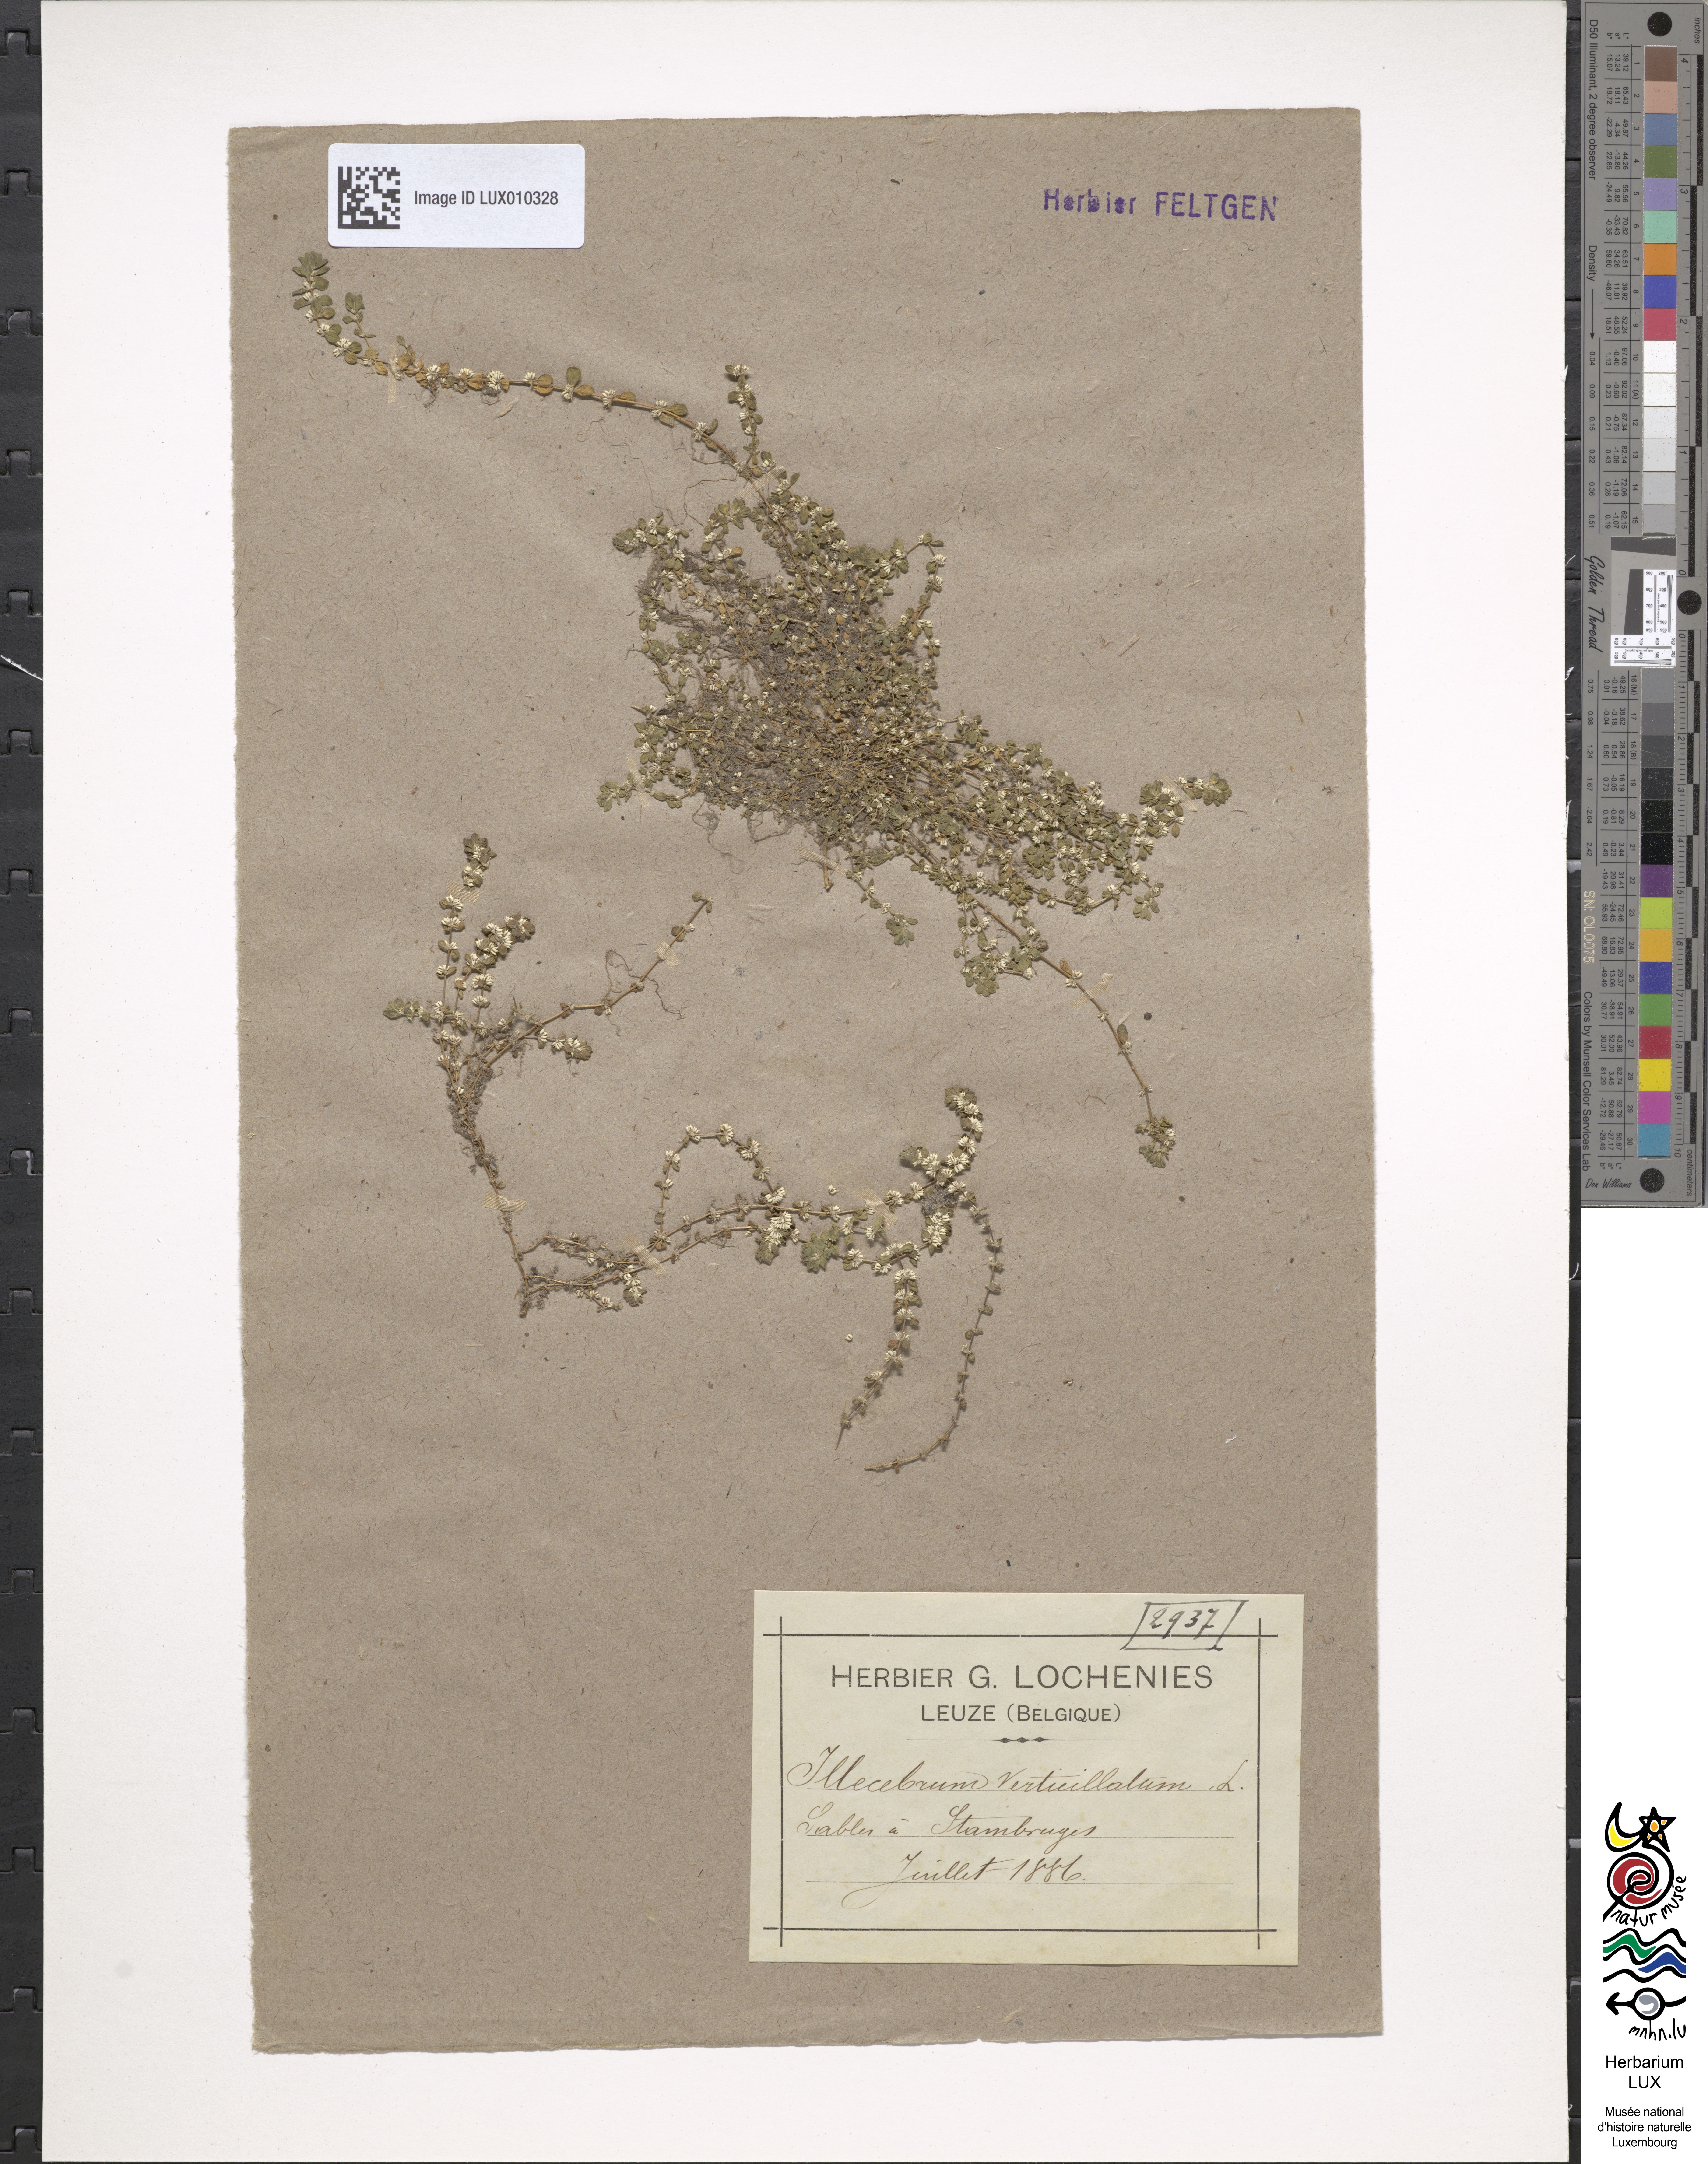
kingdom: Plantae
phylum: Tracheophyta
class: Magnoliopsida
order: Caryophyllales
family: Caryophyllaceae
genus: Illecebrum
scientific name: Illecebrum verticillatum
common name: Coral necklace
